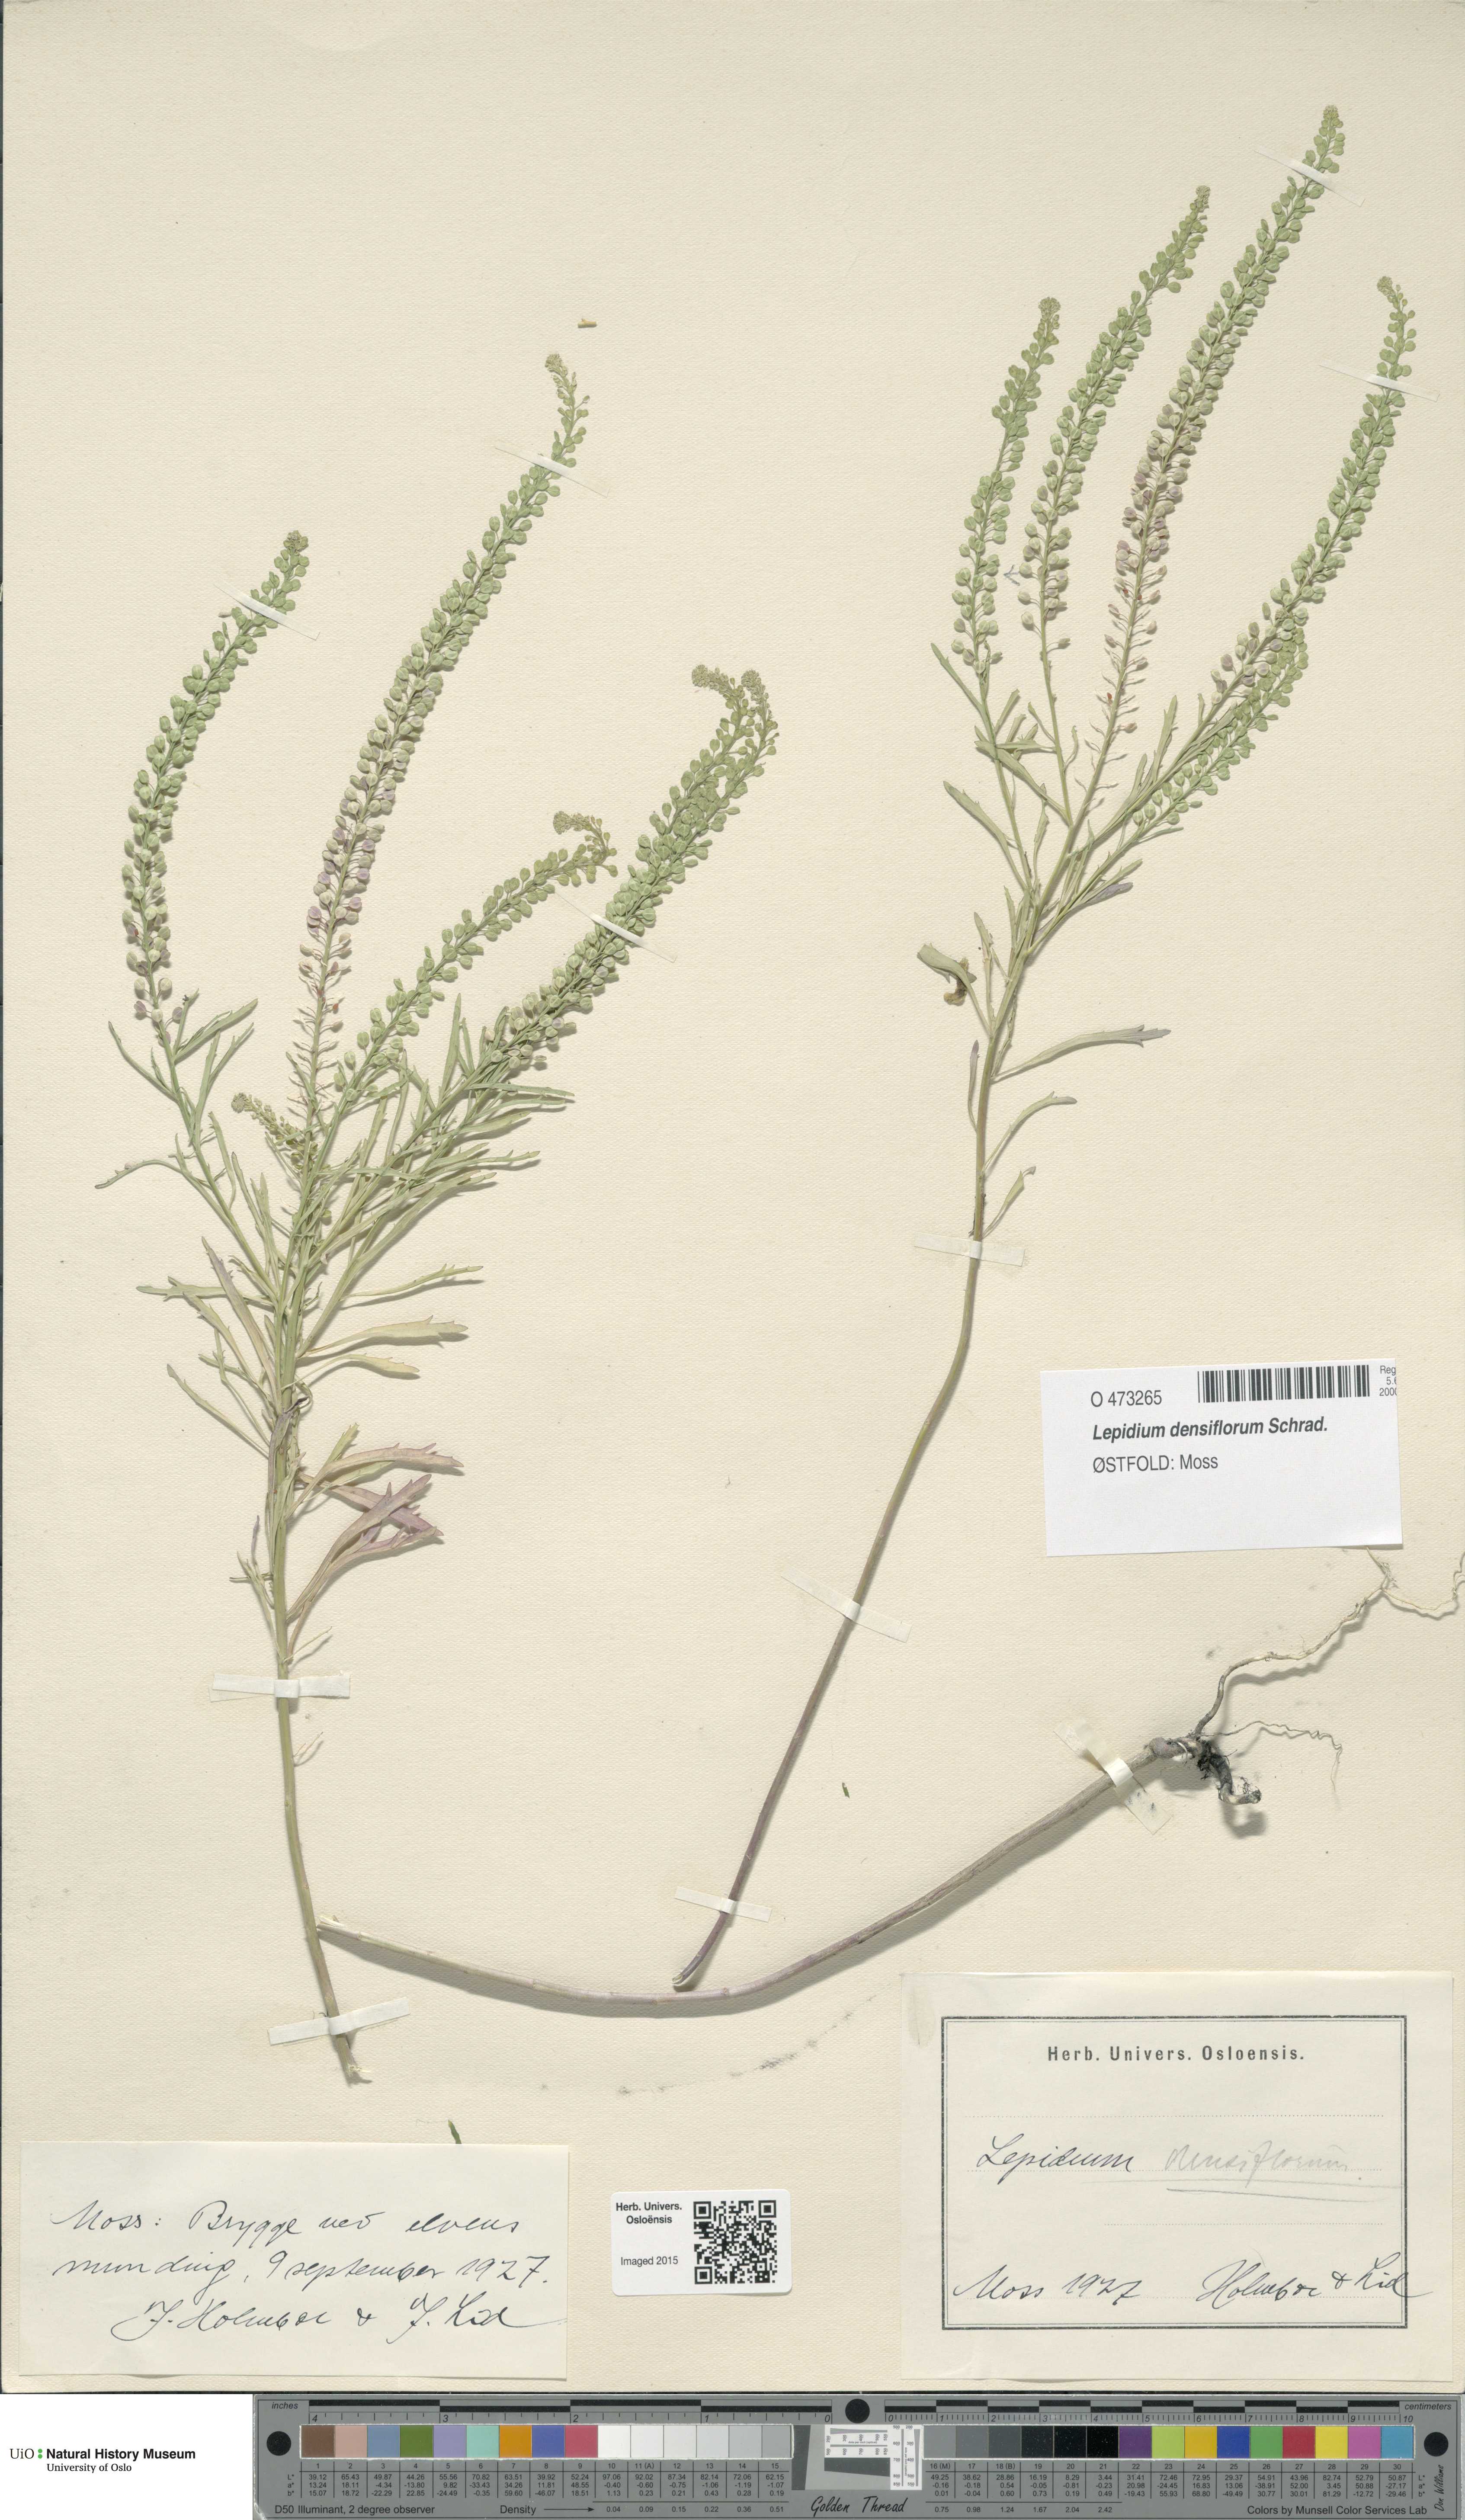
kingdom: Plantae
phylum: Tracheophyta
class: Magnoliopsida
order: Brassicales
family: Brassicaceae
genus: Lepidium
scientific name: Lepidium densiflorum
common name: Miner's pepperwort
